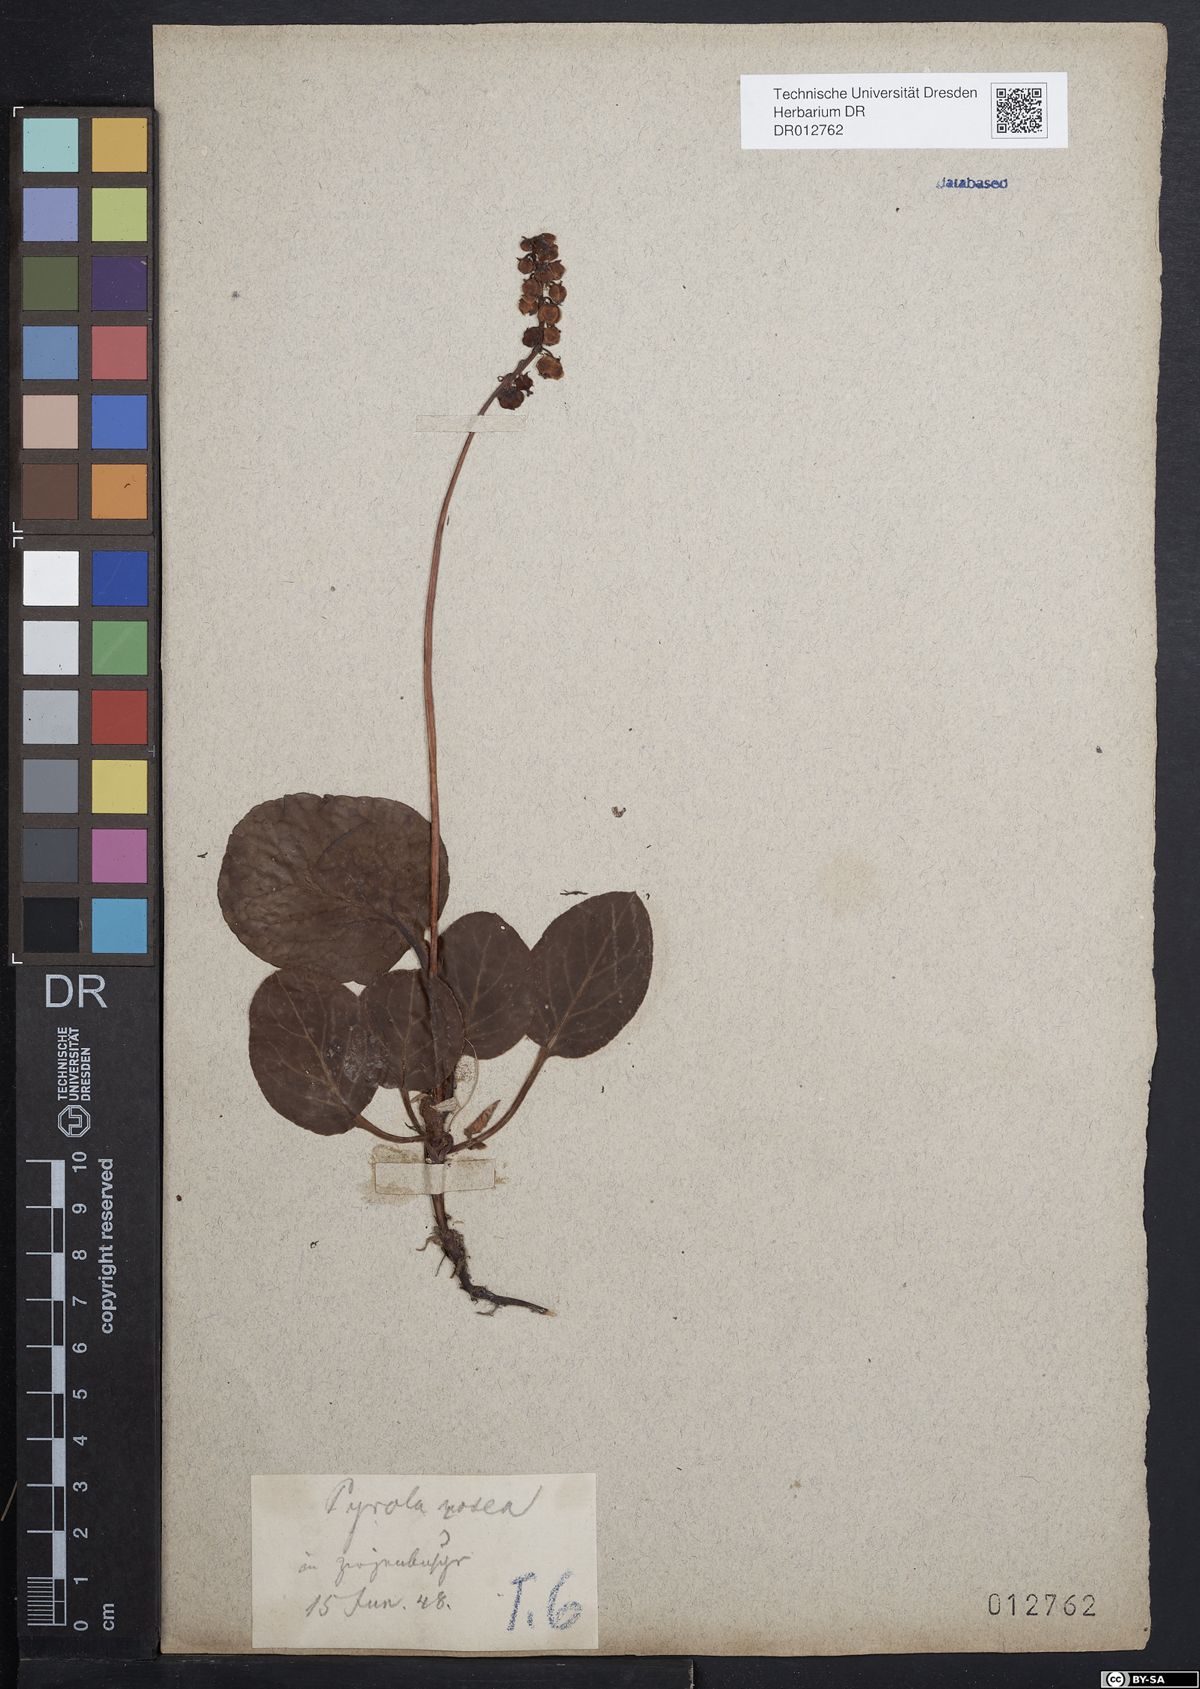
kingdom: Plantae
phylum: Tracheophyta
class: Magnoliopsida
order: Ericales
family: Ericaceae
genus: Pyrola
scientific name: Pyrola minor
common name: Common wintergreen
